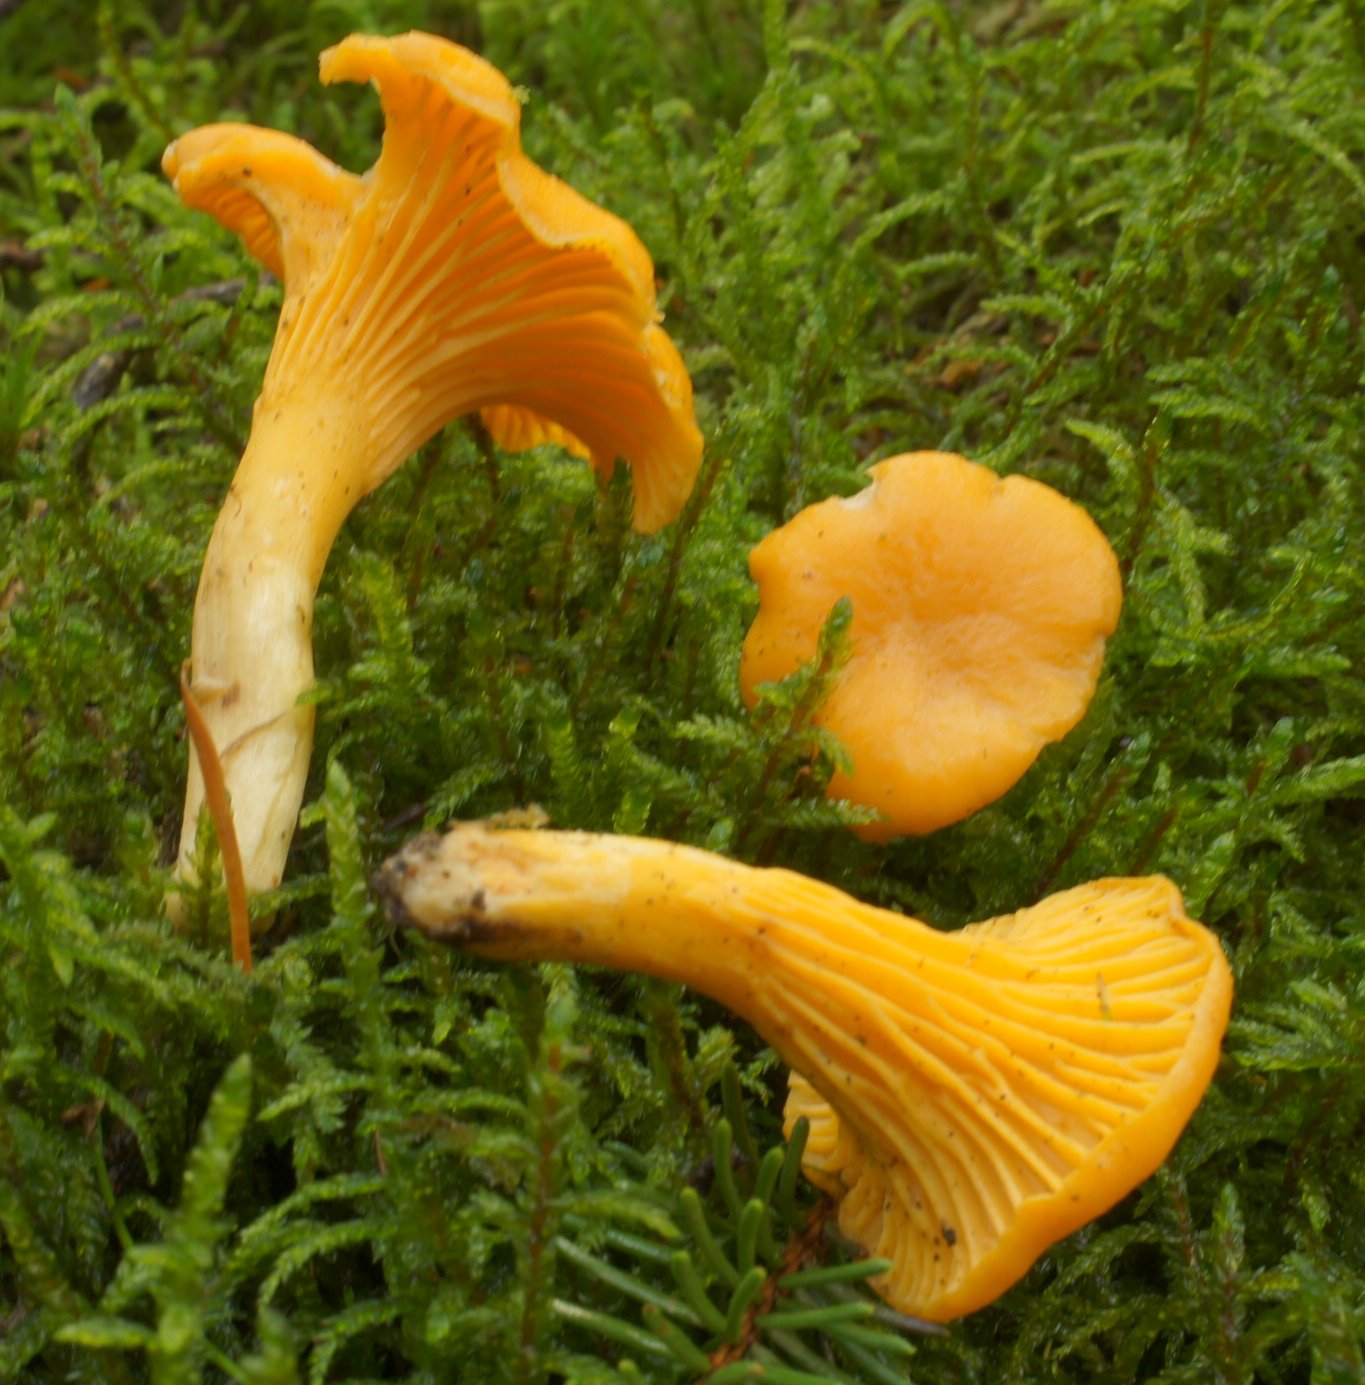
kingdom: Fungi
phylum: Basidiomycota
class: Agaricomycetes
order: Cantharellales
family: Hydnaceae
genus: Cantharellus
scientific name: Cantharellus cibarius
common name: almindelig kantarel
